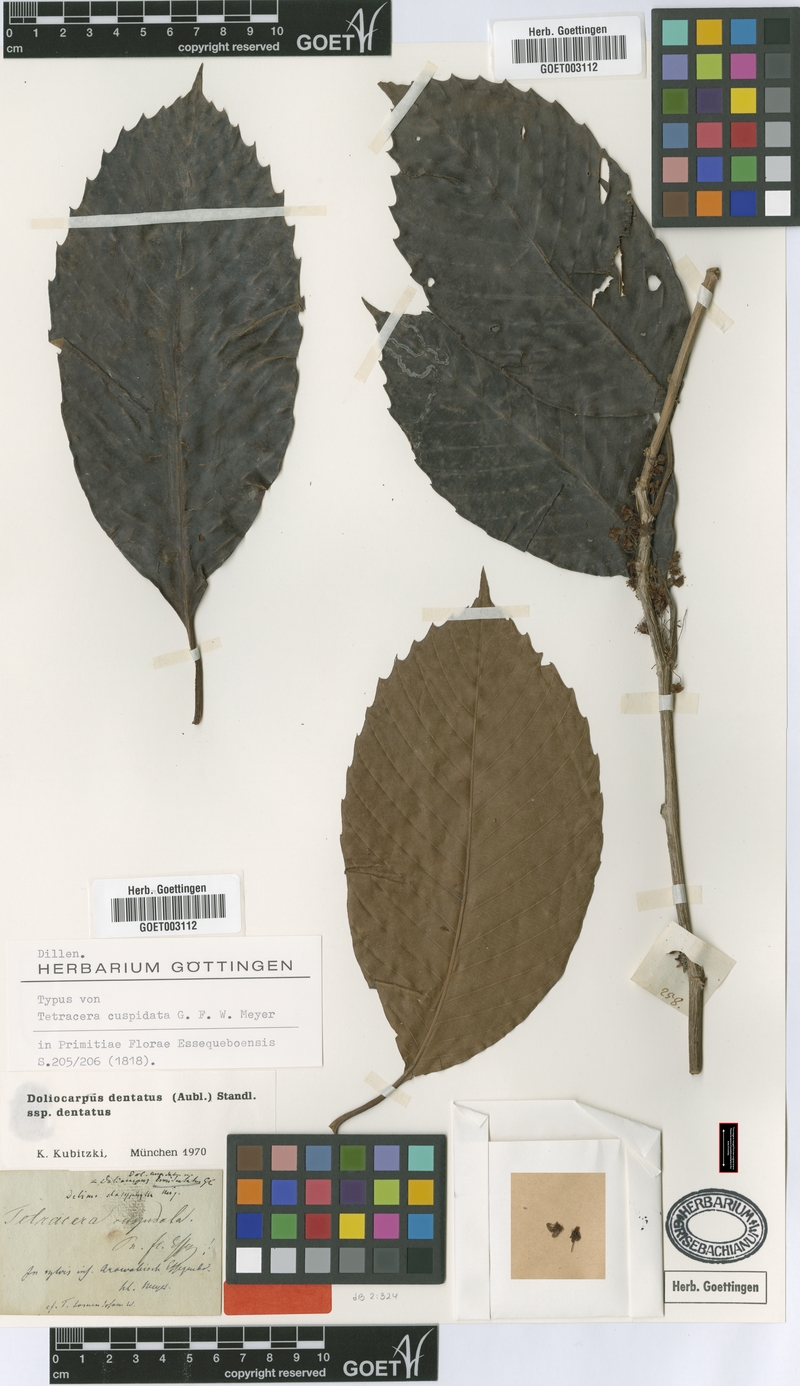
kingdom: Plantae
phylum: Tracheophyta
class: Magnoliopsida
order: Dilleniales
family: Dilleniaceae
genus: Doliocarpus
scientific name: Doliocarpus dentatus
